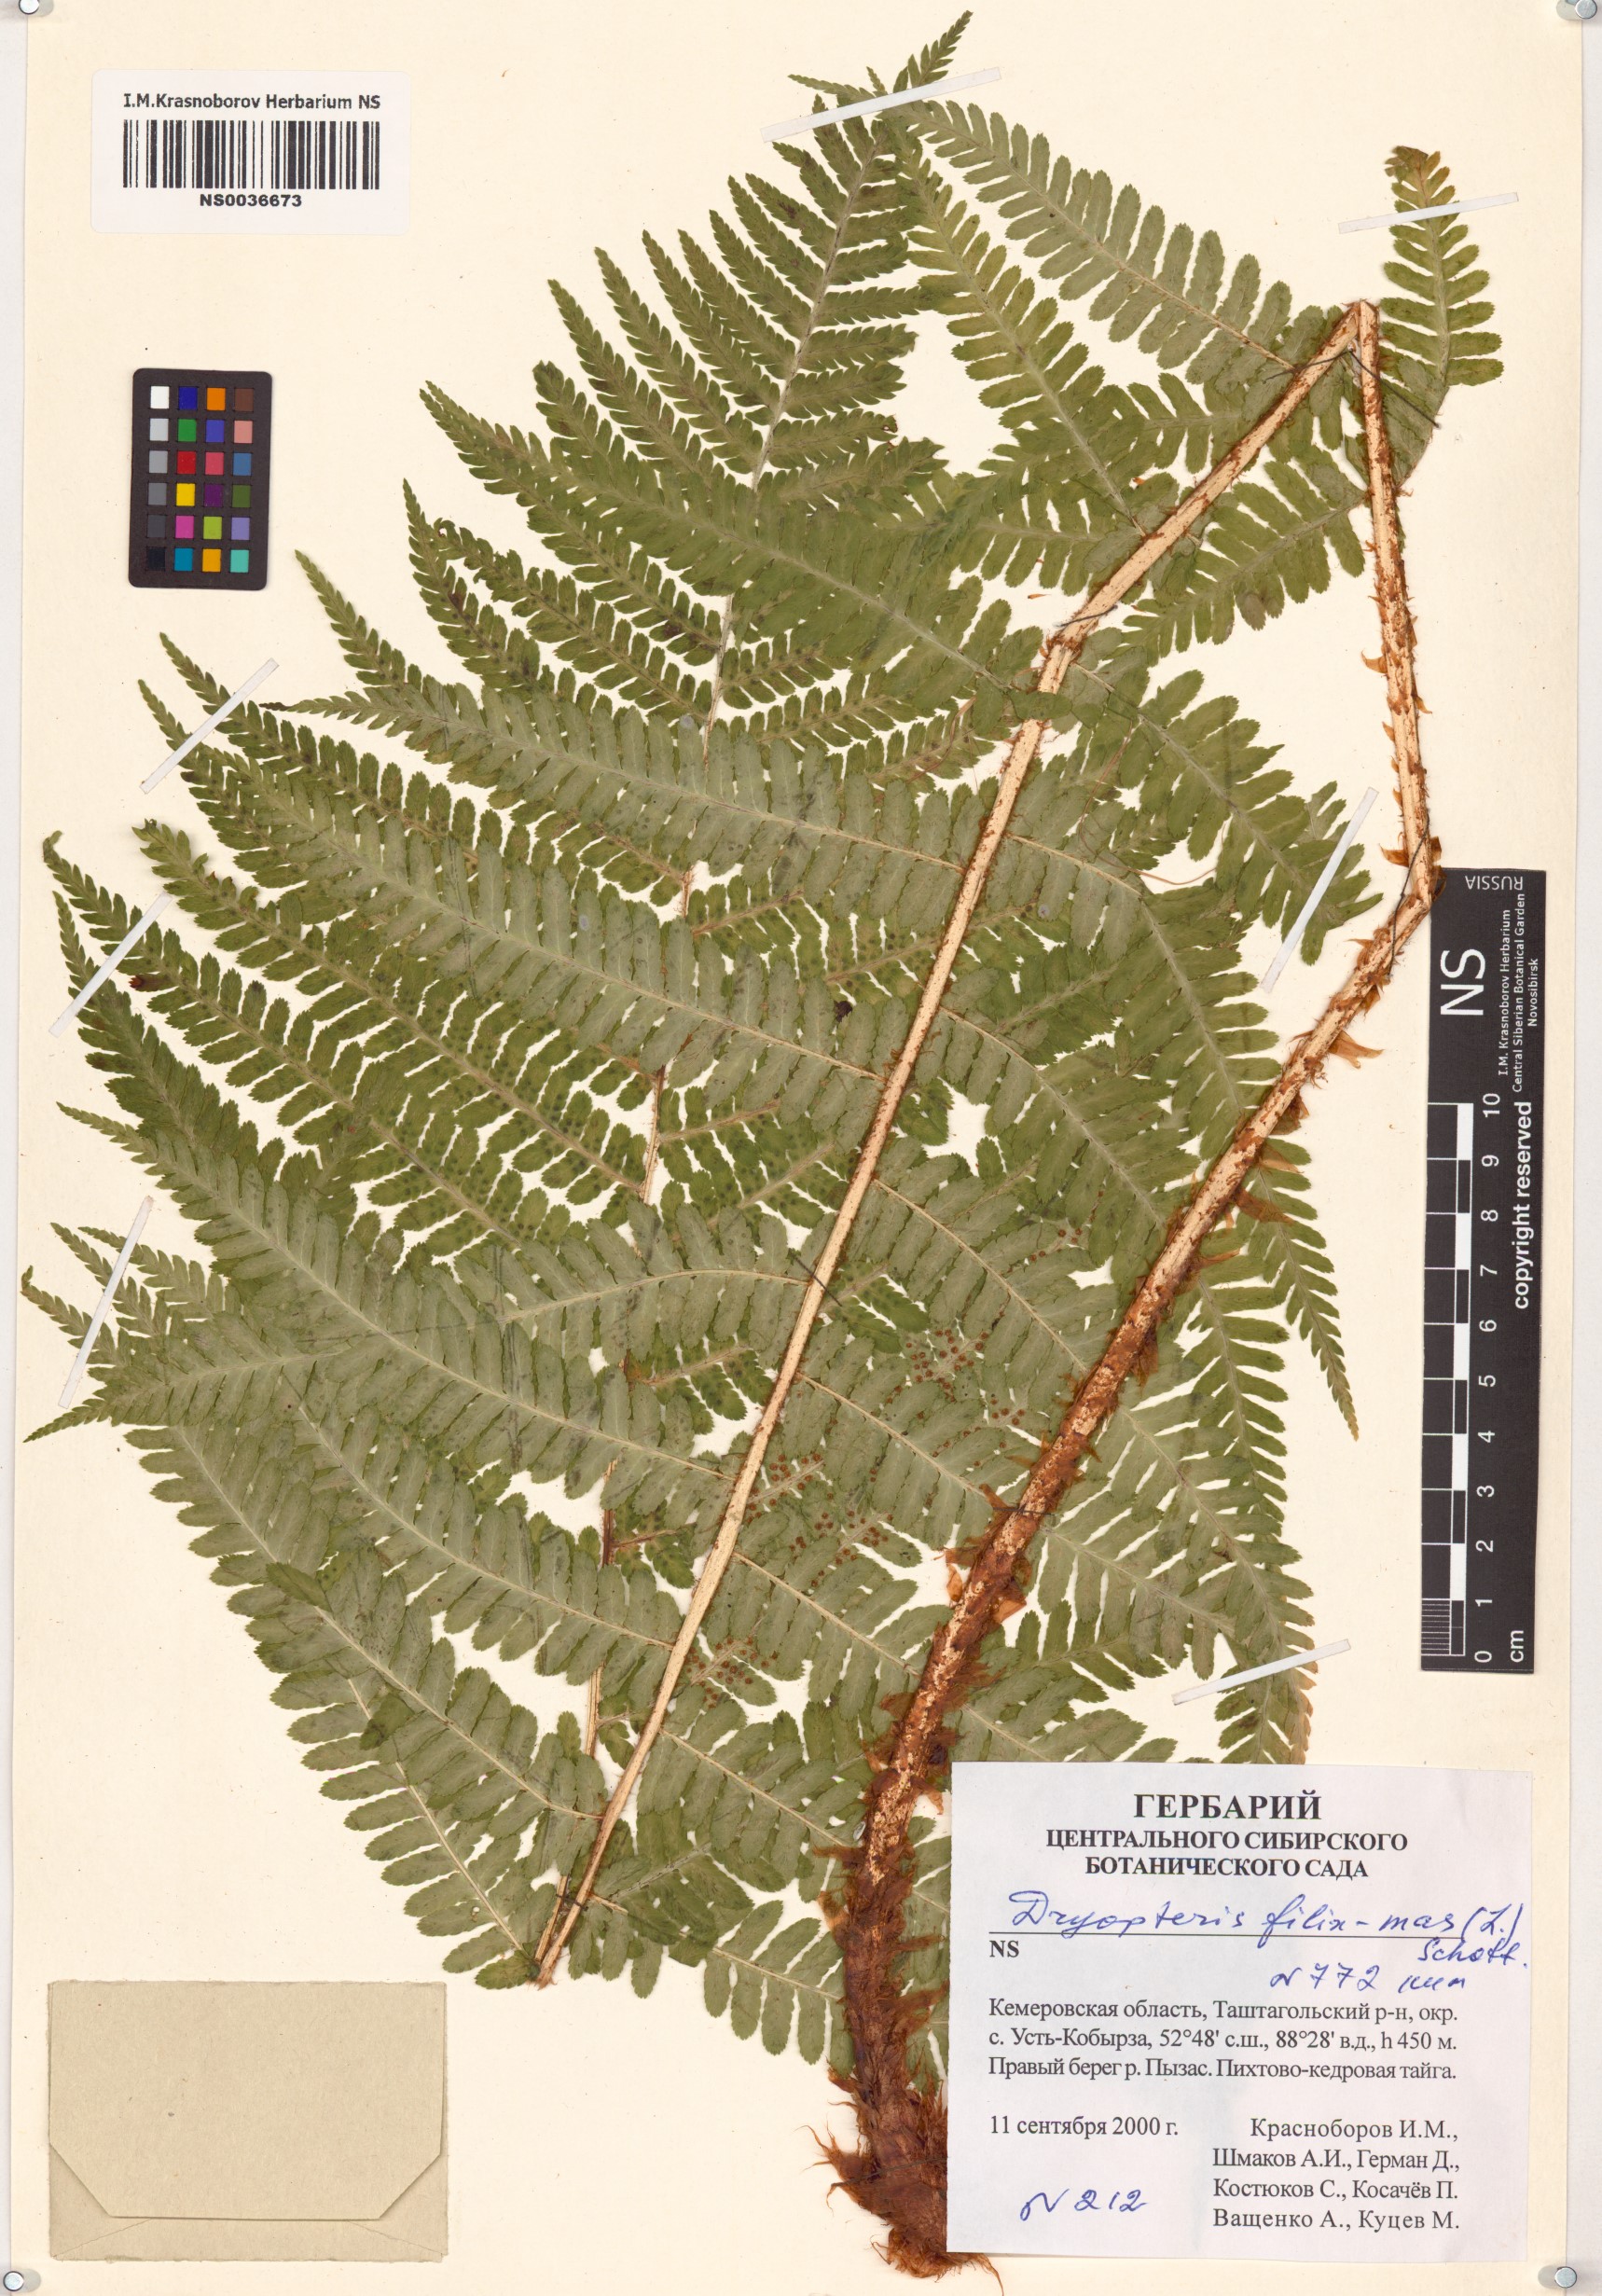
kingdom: Plantae
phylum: Tracheophyta
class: Polypodiopsida
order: Polypodiales
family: Dryopteridaceae
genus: Dryopteris
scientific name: Dryopteris filix-mas
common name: Male fern
